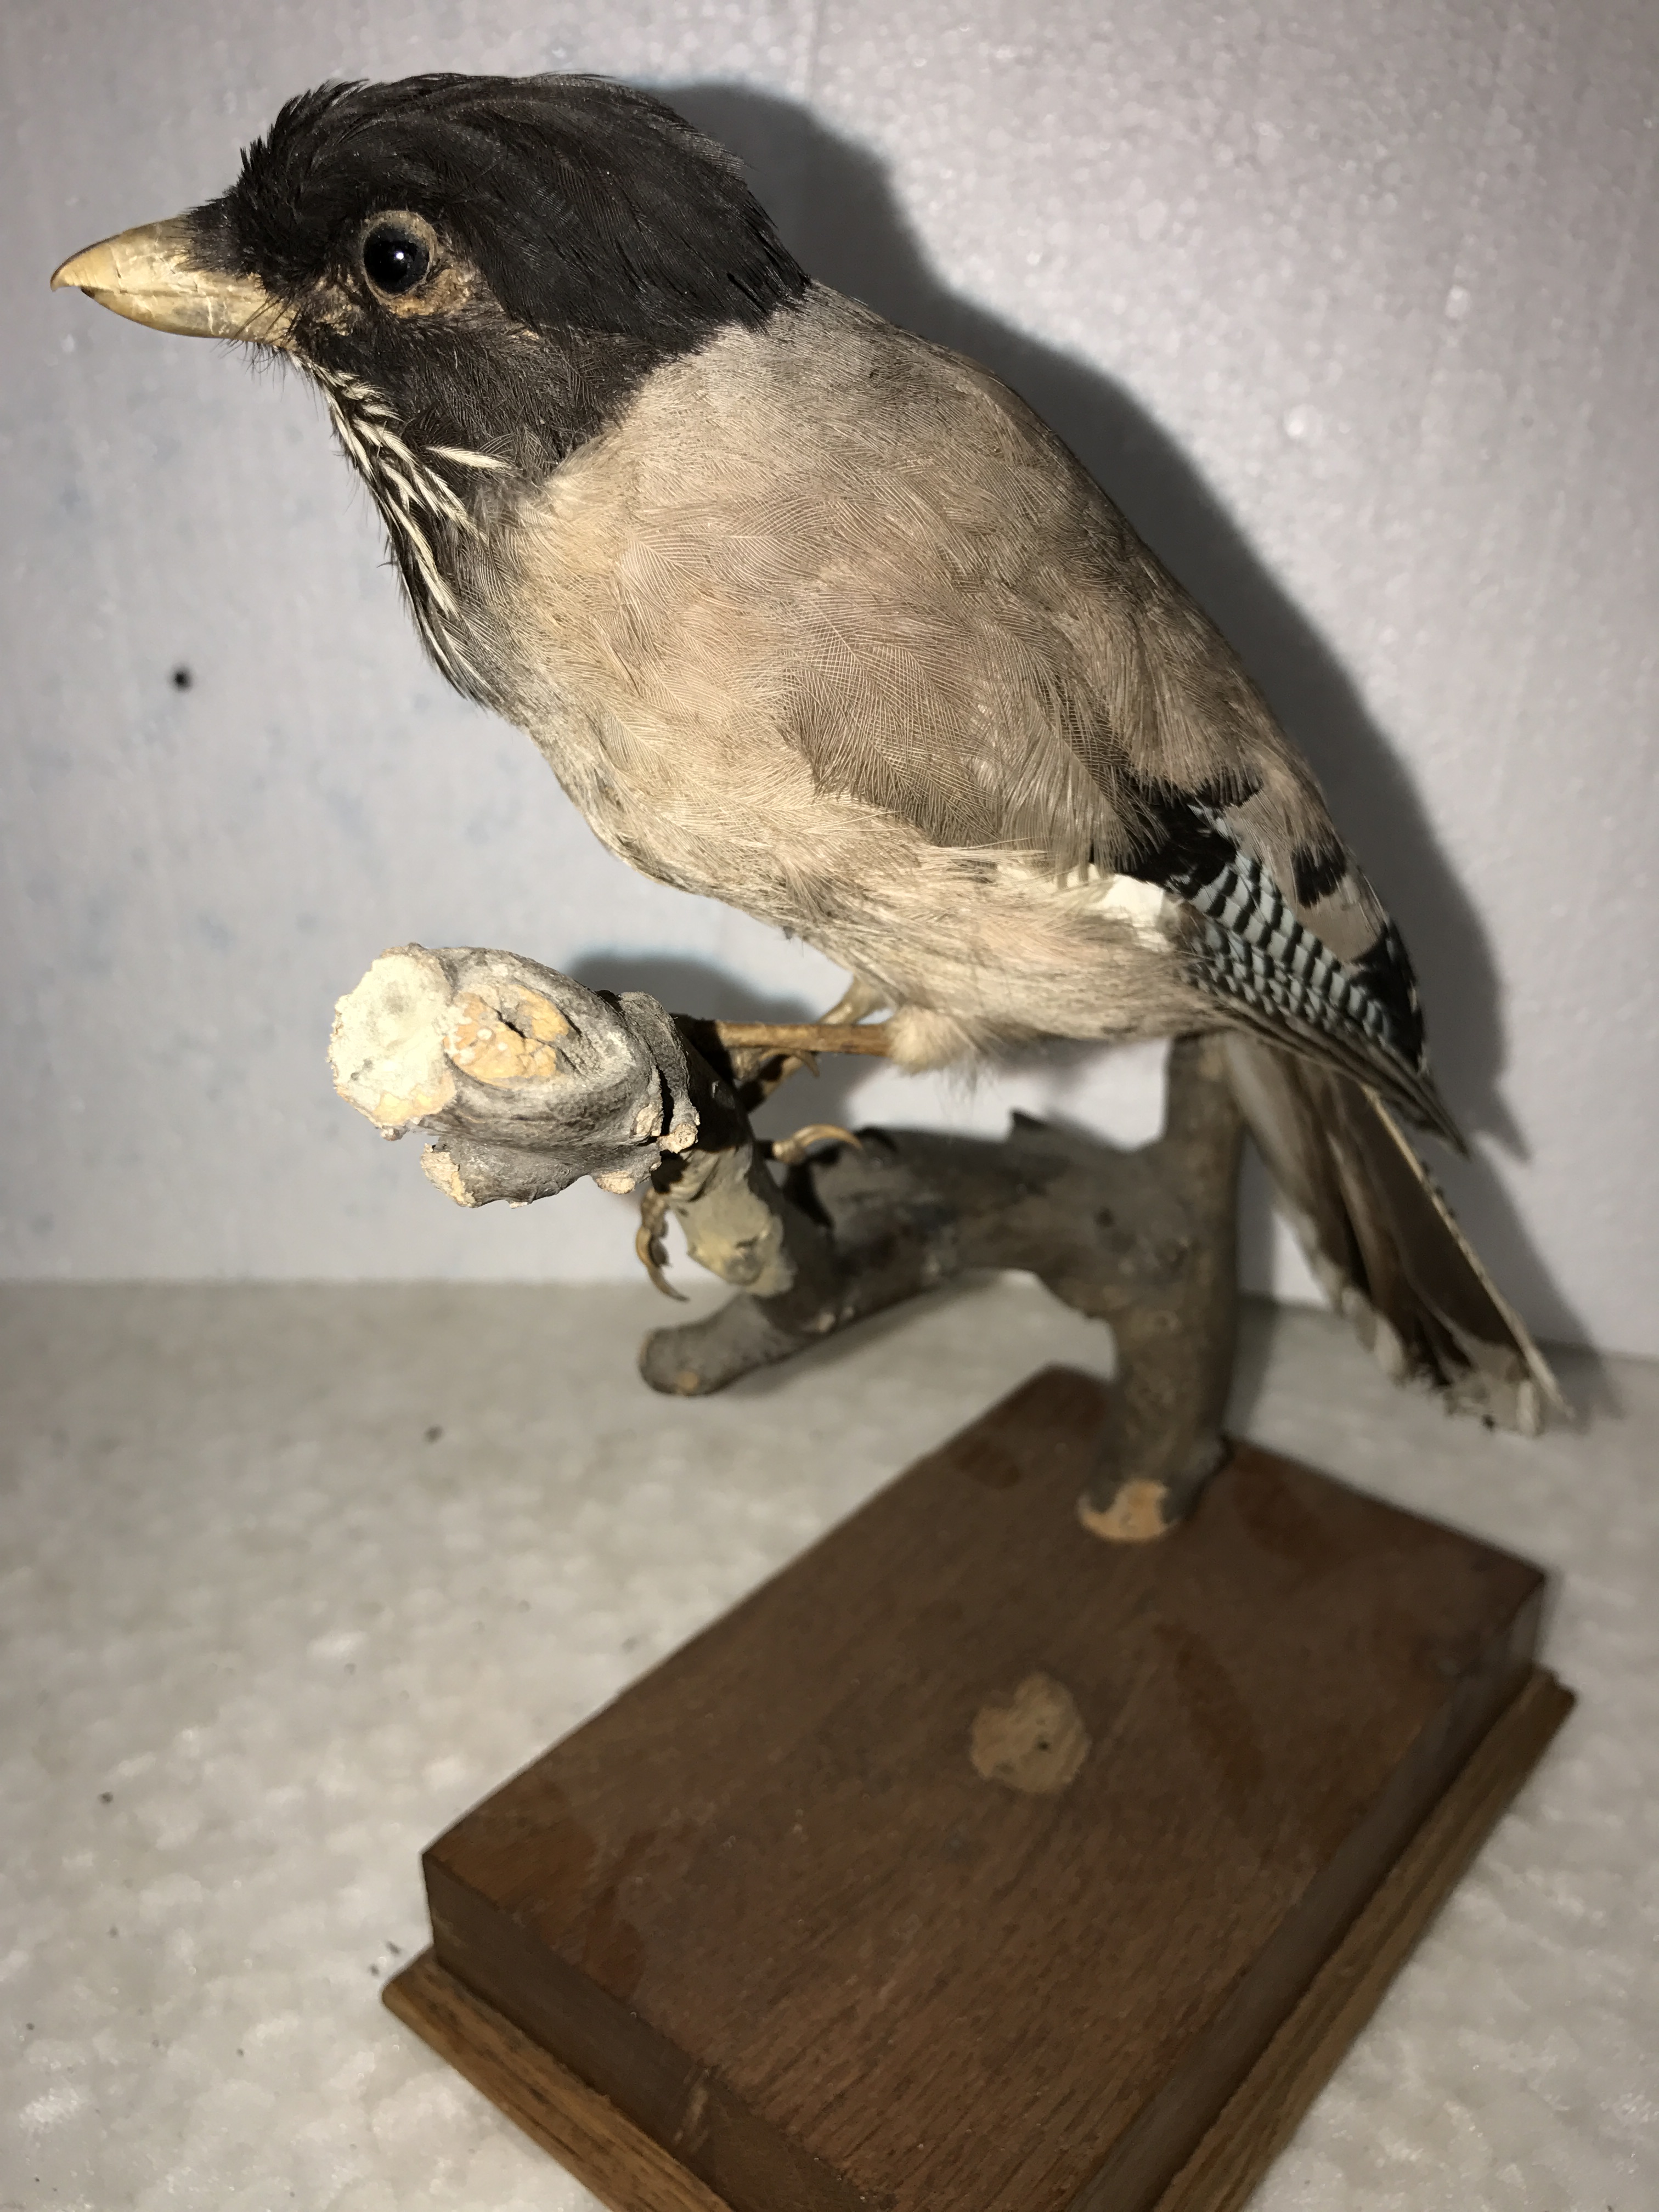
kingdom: Animalia
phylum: Chordata
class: Aves
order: Passeriformes
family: Corvidae
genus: Garrulus
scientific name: Garrulus lanceolatus
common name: Black-headed jay
